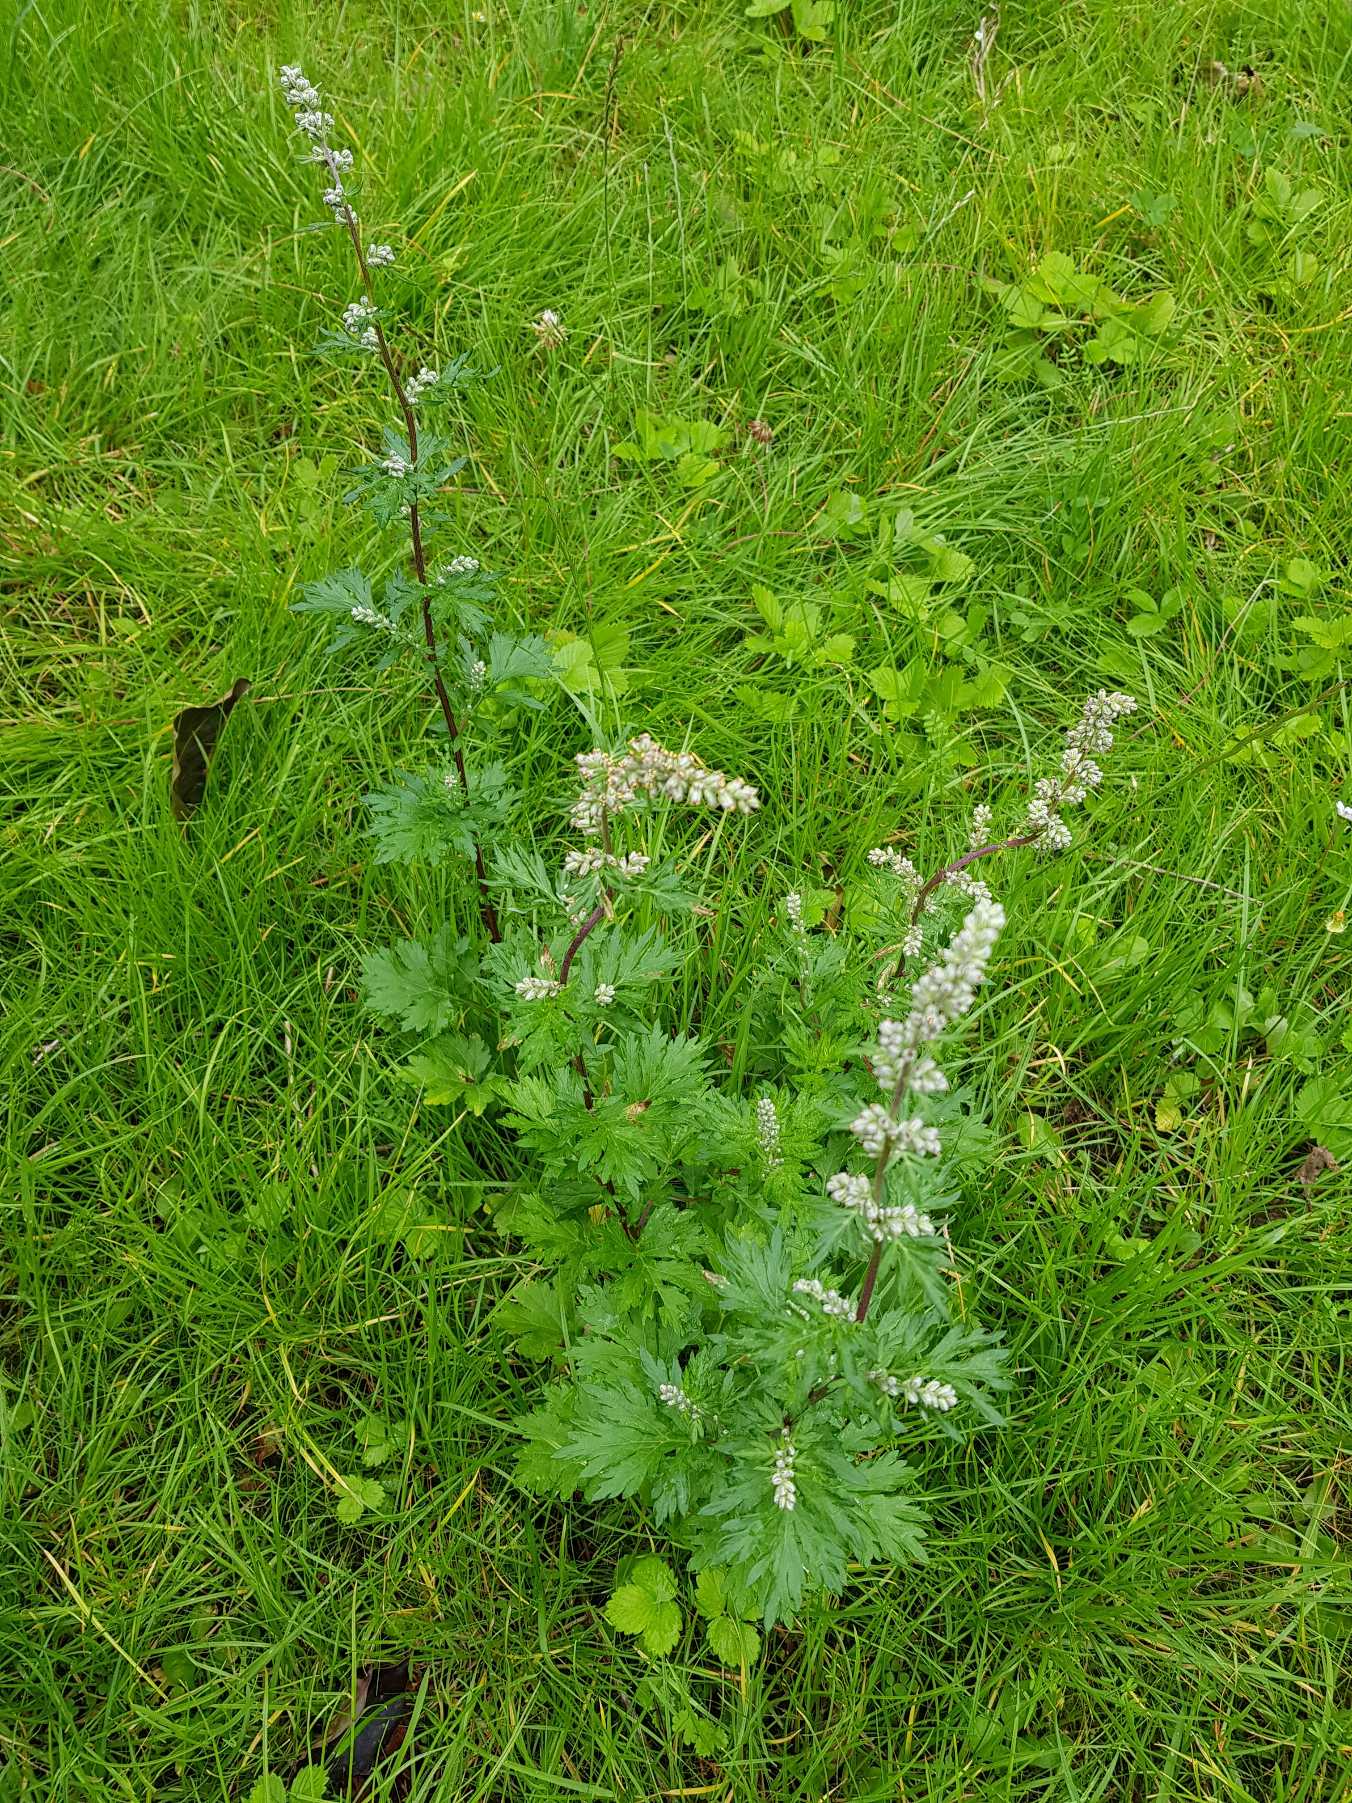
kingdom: Plantae
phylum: Tracheophyta
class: Magnoliopsida
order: Asterales
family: Asteraceae
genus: Artemisia
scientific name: Artemisia vulgaris
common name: Grå-bynke
